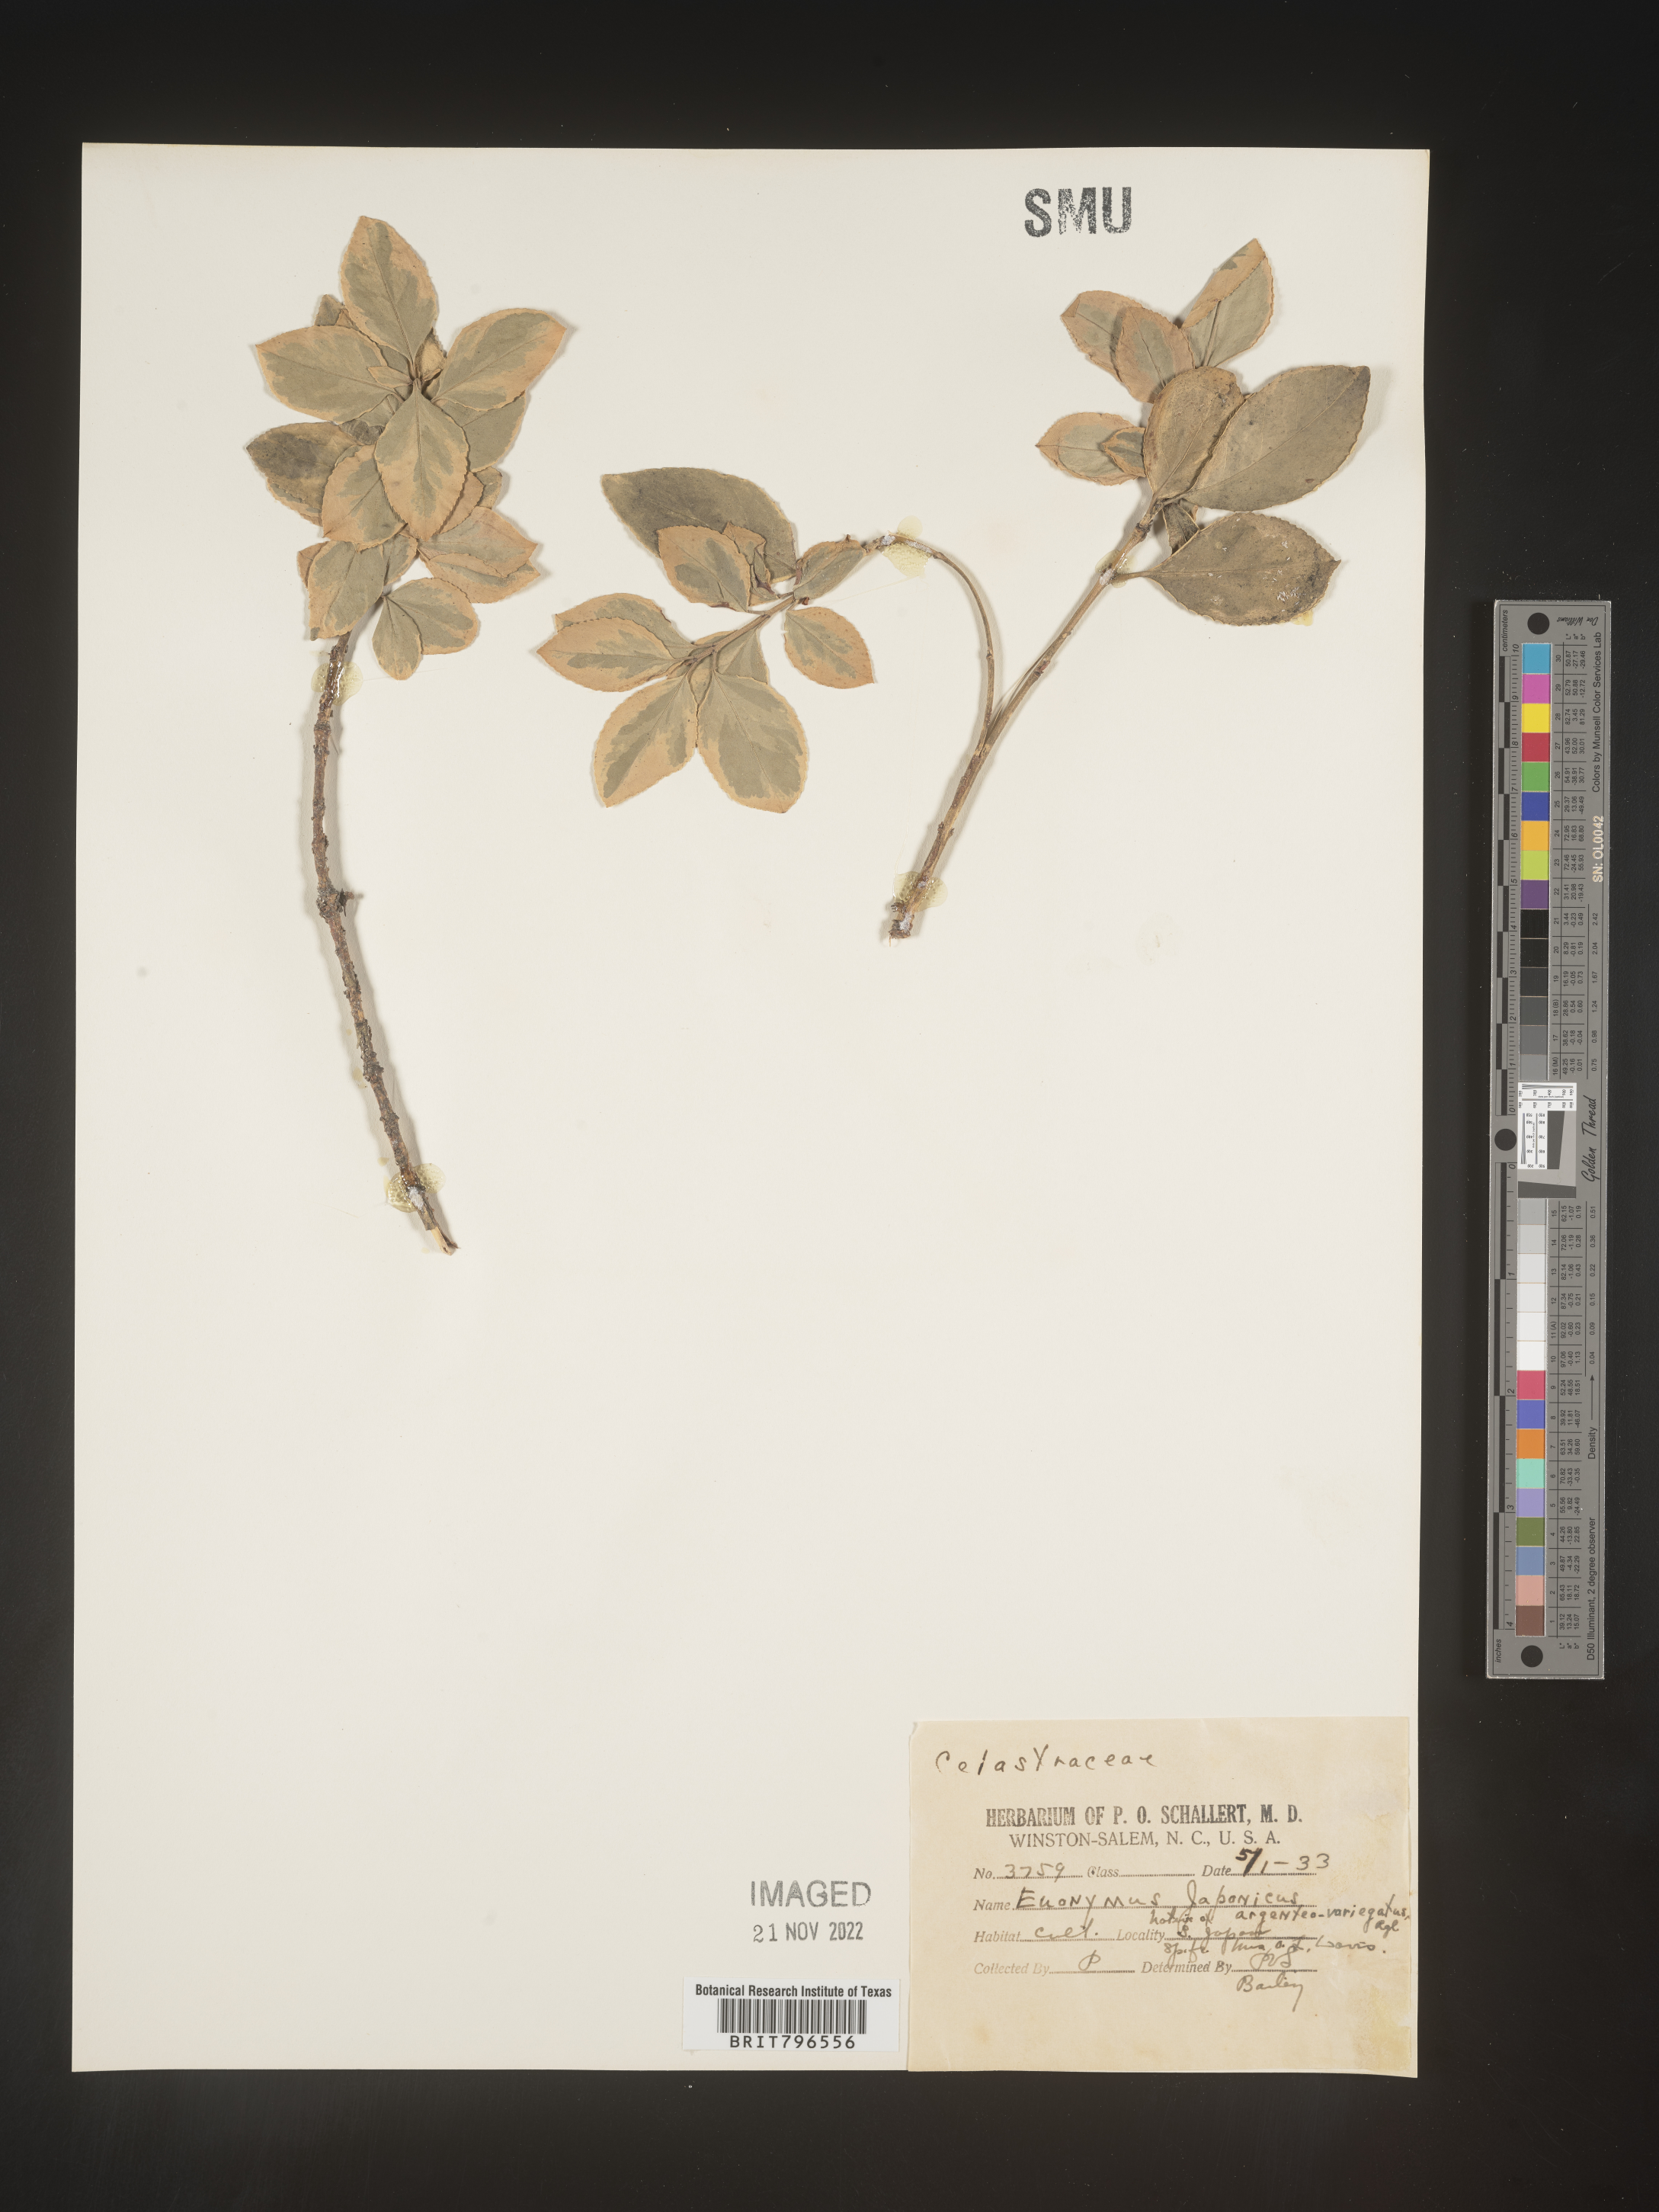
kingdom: Plantae
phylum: Tracheophyta
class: Magnoliopsida
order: Celastrales
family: Celastraceae
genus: Euonymus
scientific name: Euonymus
